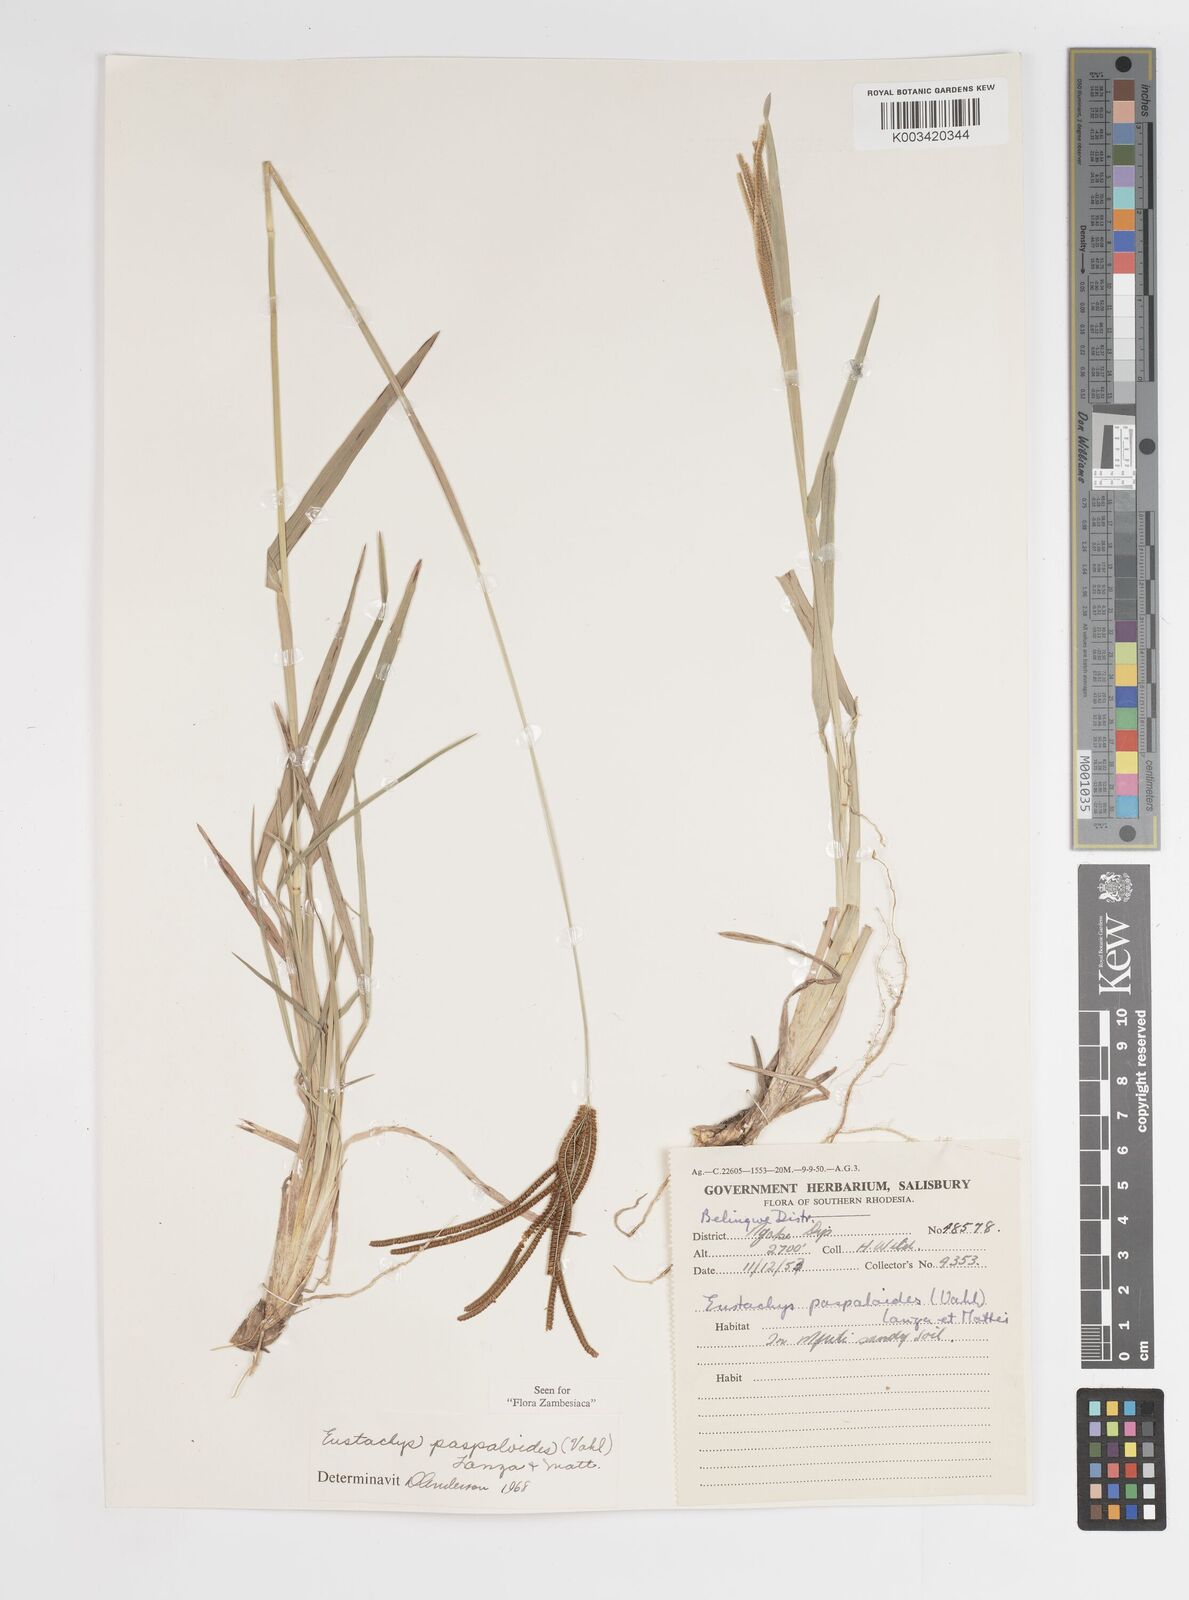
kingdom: Plantae
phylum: Tracheophyta
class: Liliopsida
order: Poales
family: Poaceae
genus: Eustachys
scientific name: Eustachys paspaloides
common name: Caribbean fingergrass
